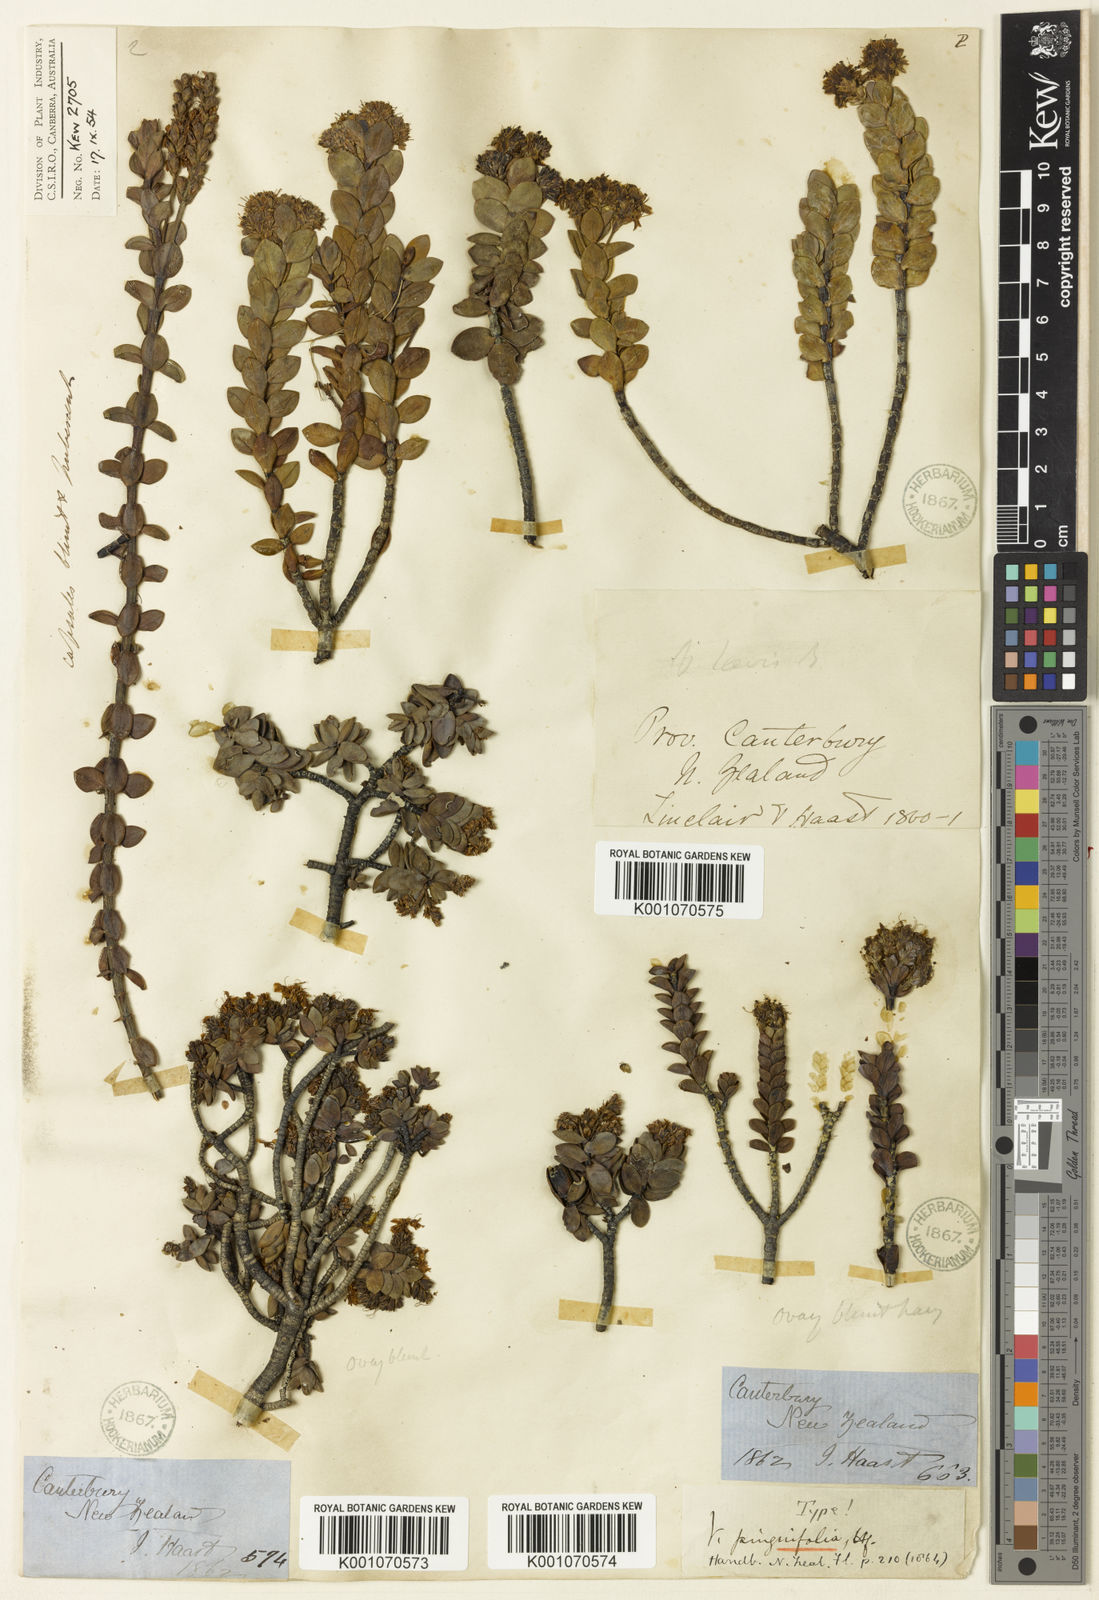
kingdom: Plantae
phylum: Tracheophyta
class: Magnoliopsida
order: Lamiales
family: Plantaginaceae
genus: Veronica
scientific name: Veronica pinguifolia
